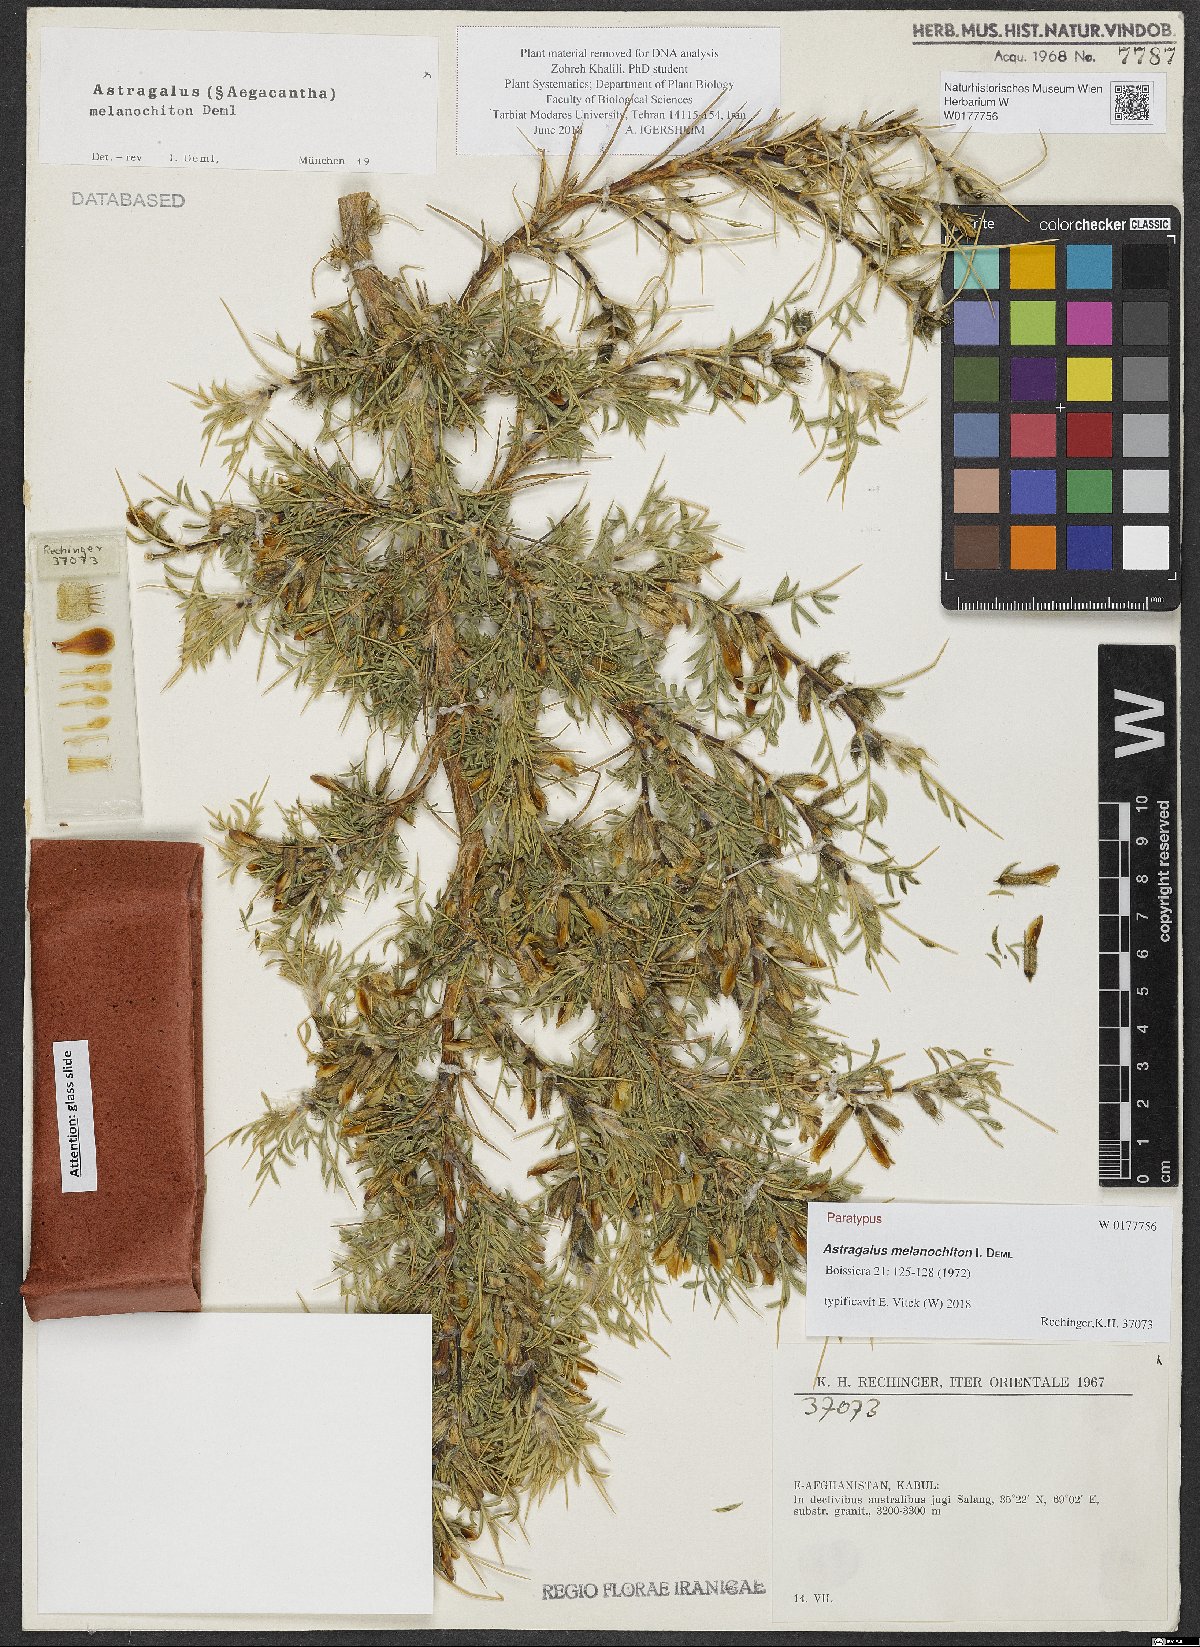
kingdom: Plantae
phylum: Tracheophyta
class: Magnoliopsida
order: Fabales
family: Fabaceae
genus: Astragalus
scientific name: Astragalus melanochiton
